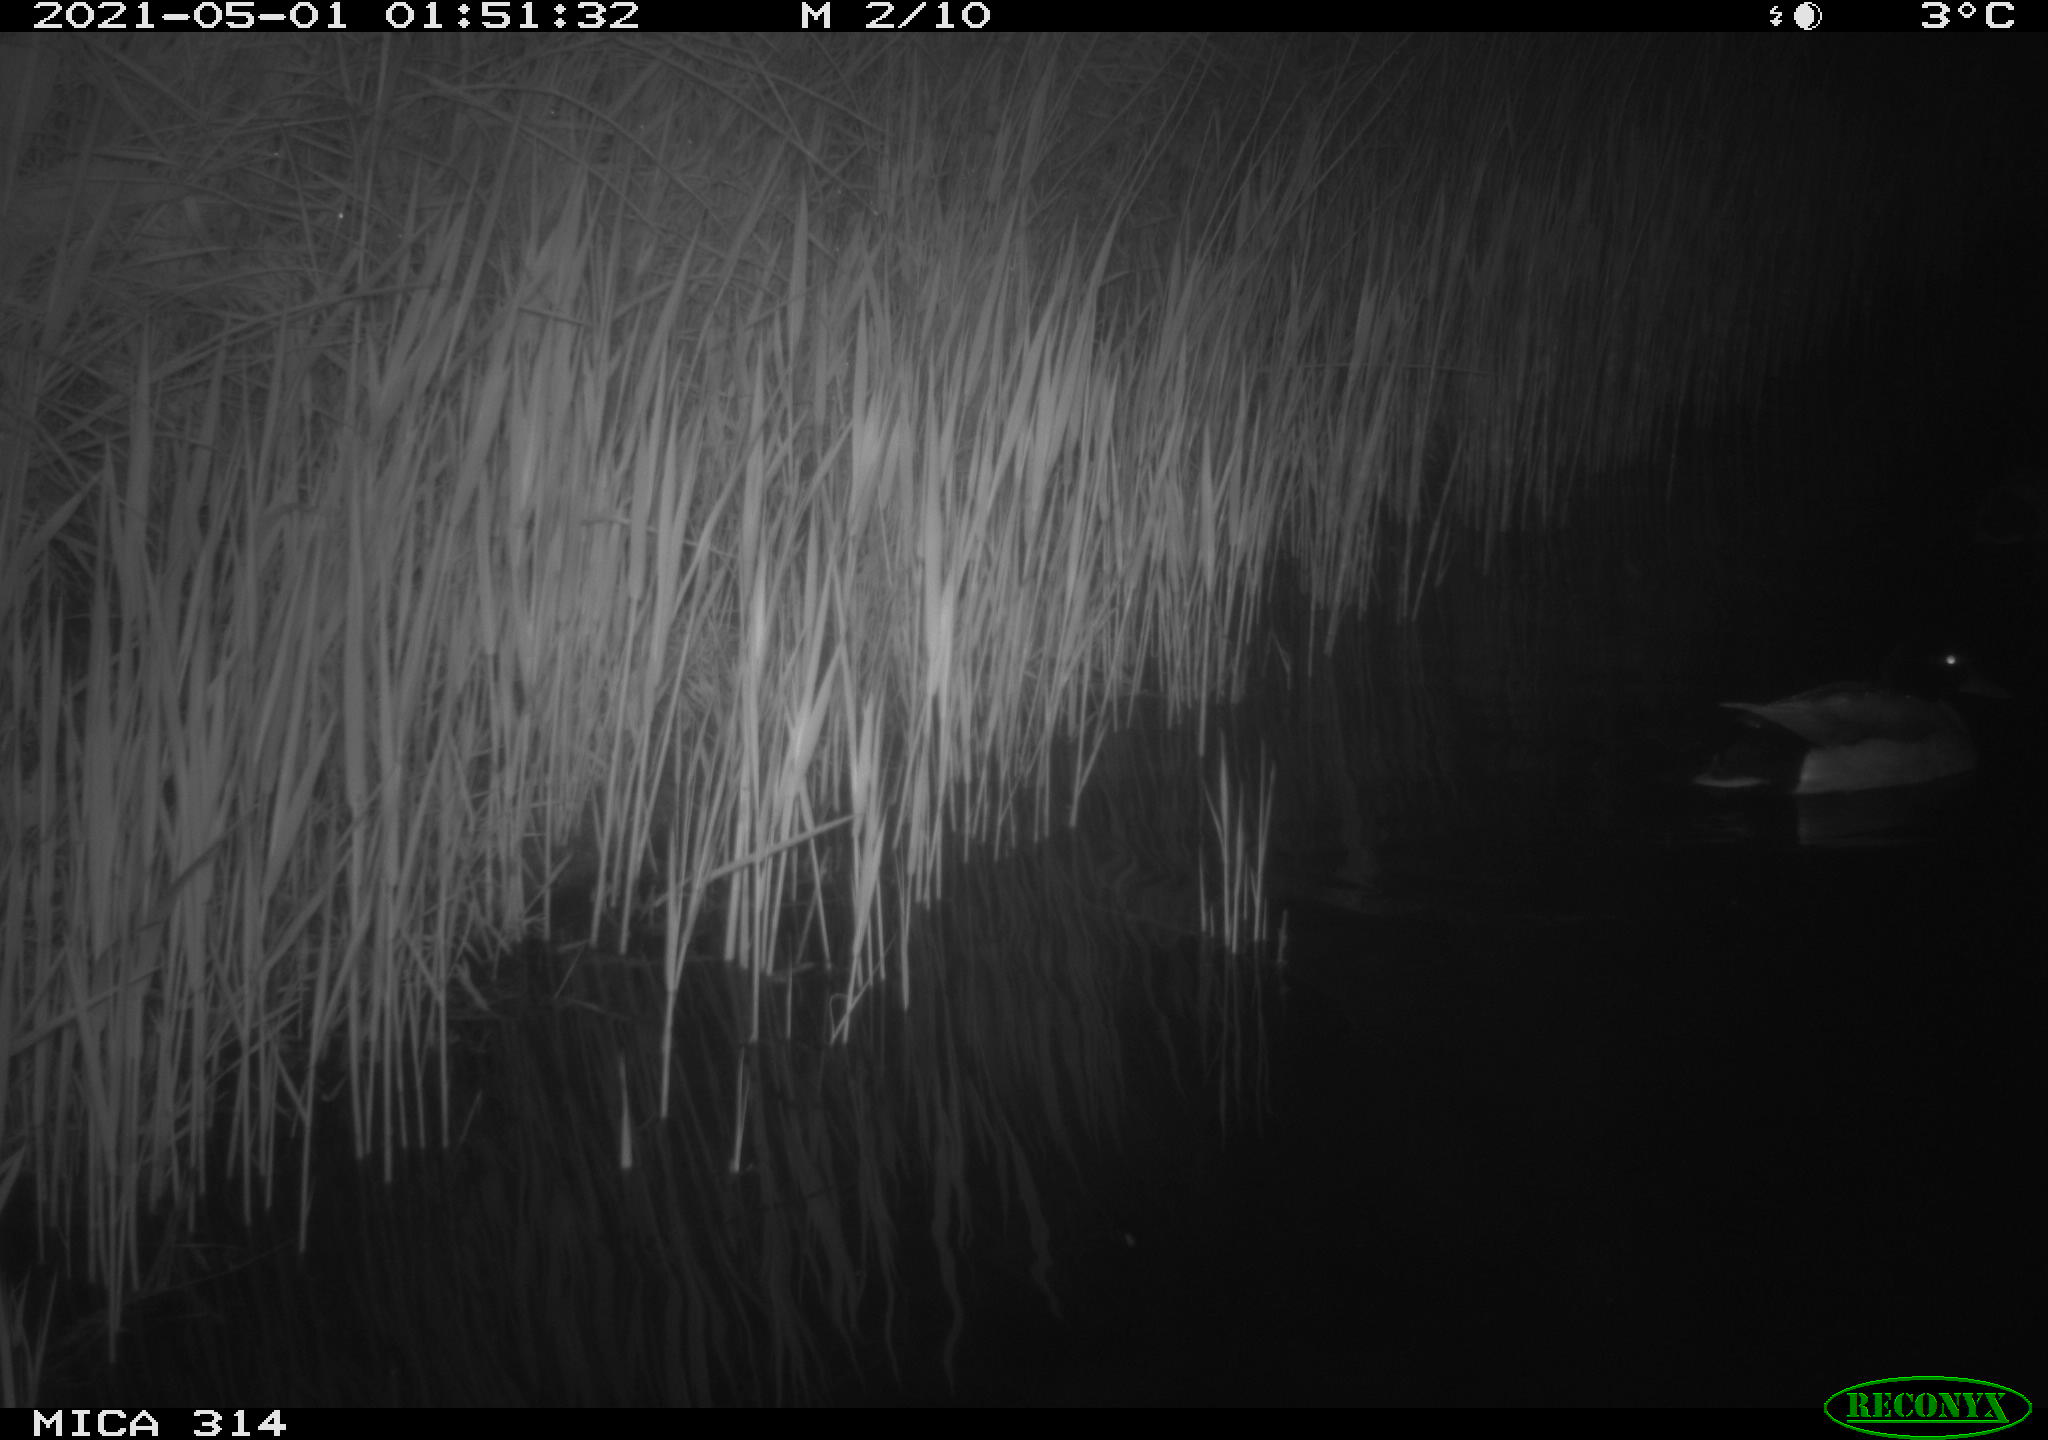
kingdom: Animalia
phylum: Chordata
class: Aves
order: Anseriformes
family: Anatidae
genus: Anas
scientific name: Anas platyrhynchos
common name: Mallard
